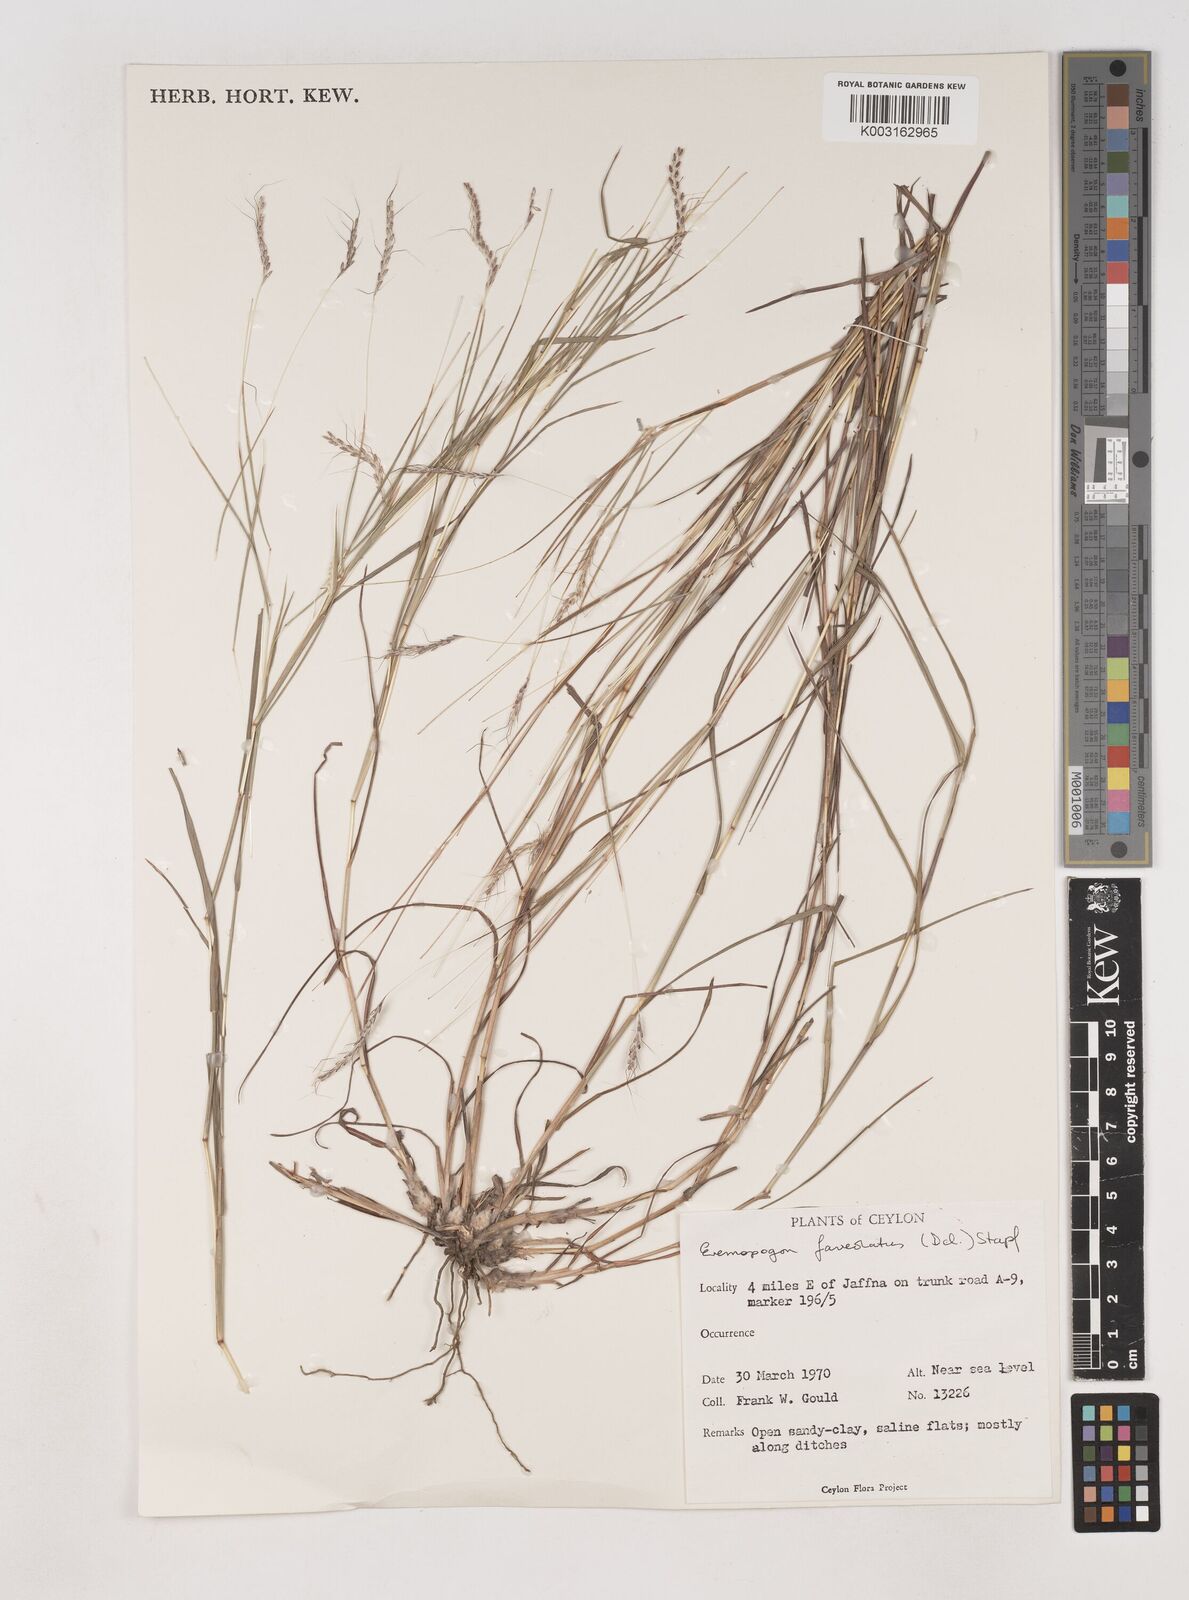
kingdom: Plantae
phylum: Tracheophyta
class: Liliopsida
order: Poales
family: Poaceae
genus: Dichanthium
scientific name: Dichanthium
